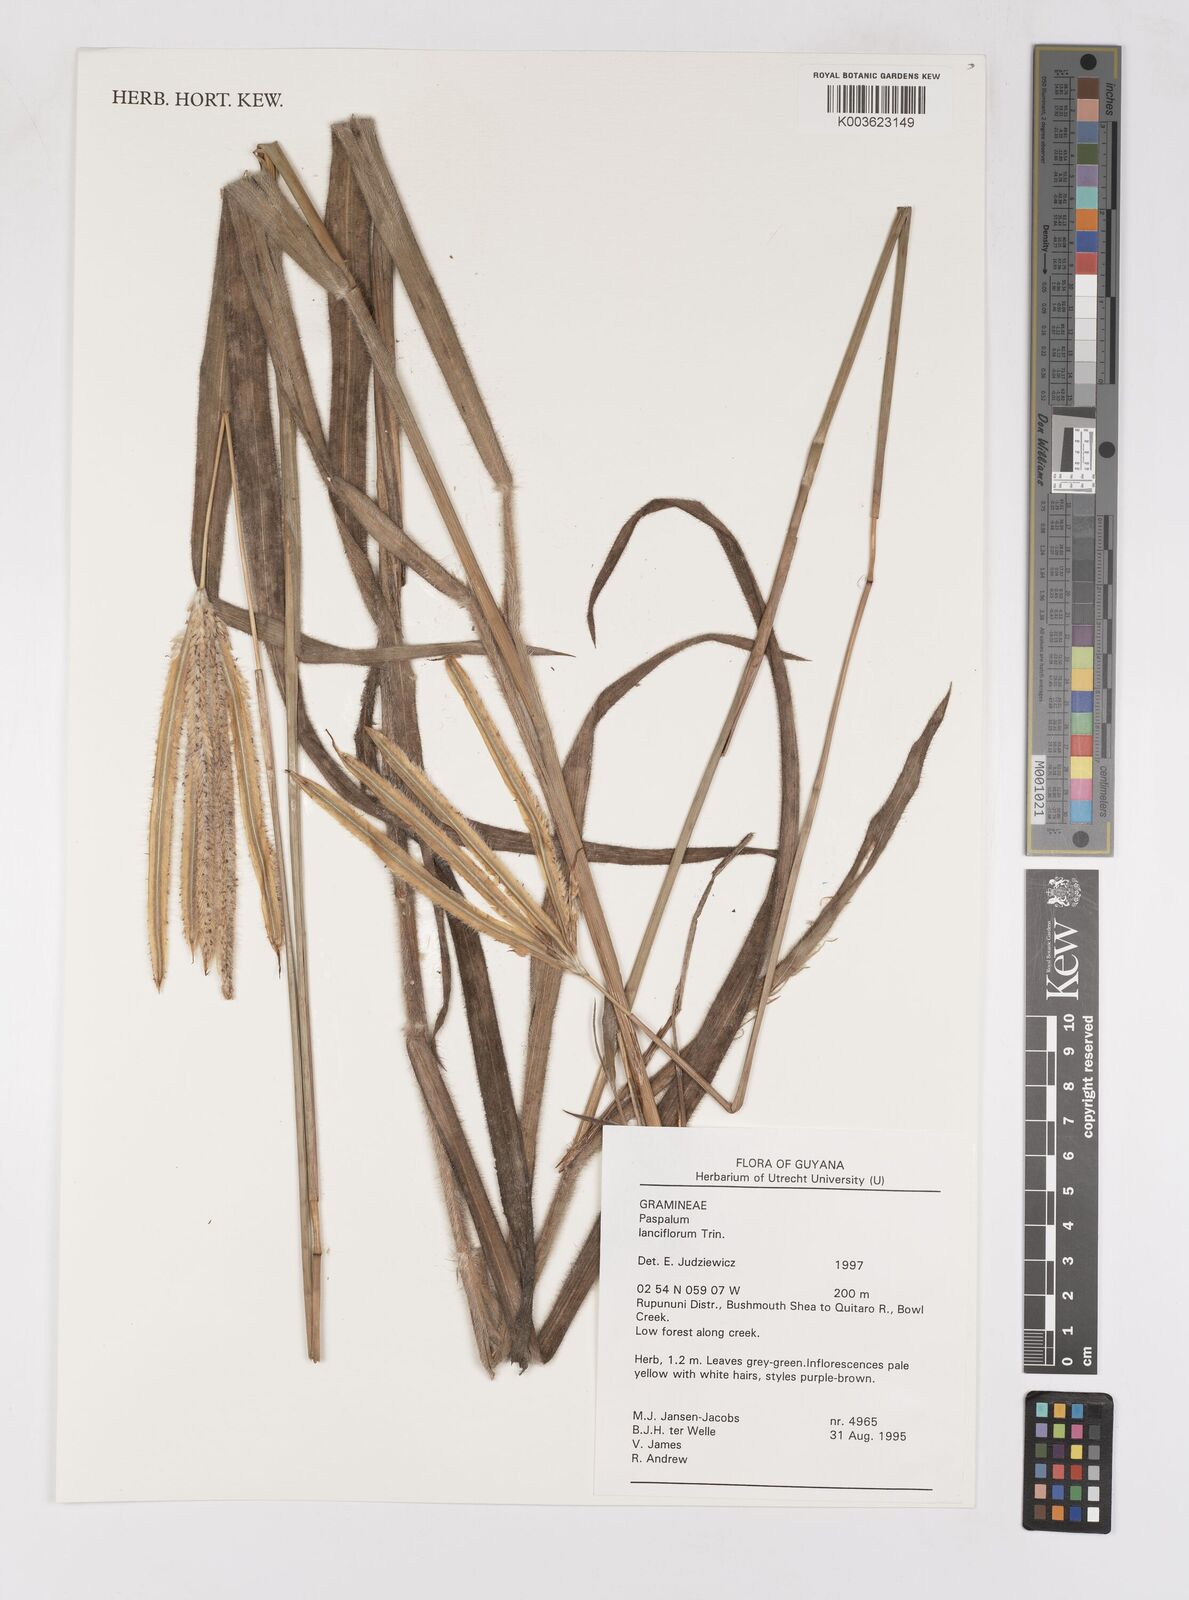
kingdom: Plantae
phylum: Tracheophyta
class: Liliopsida
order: Poales
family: Poaceae
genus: Paspalum
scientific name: Paspalum lanciflorum
